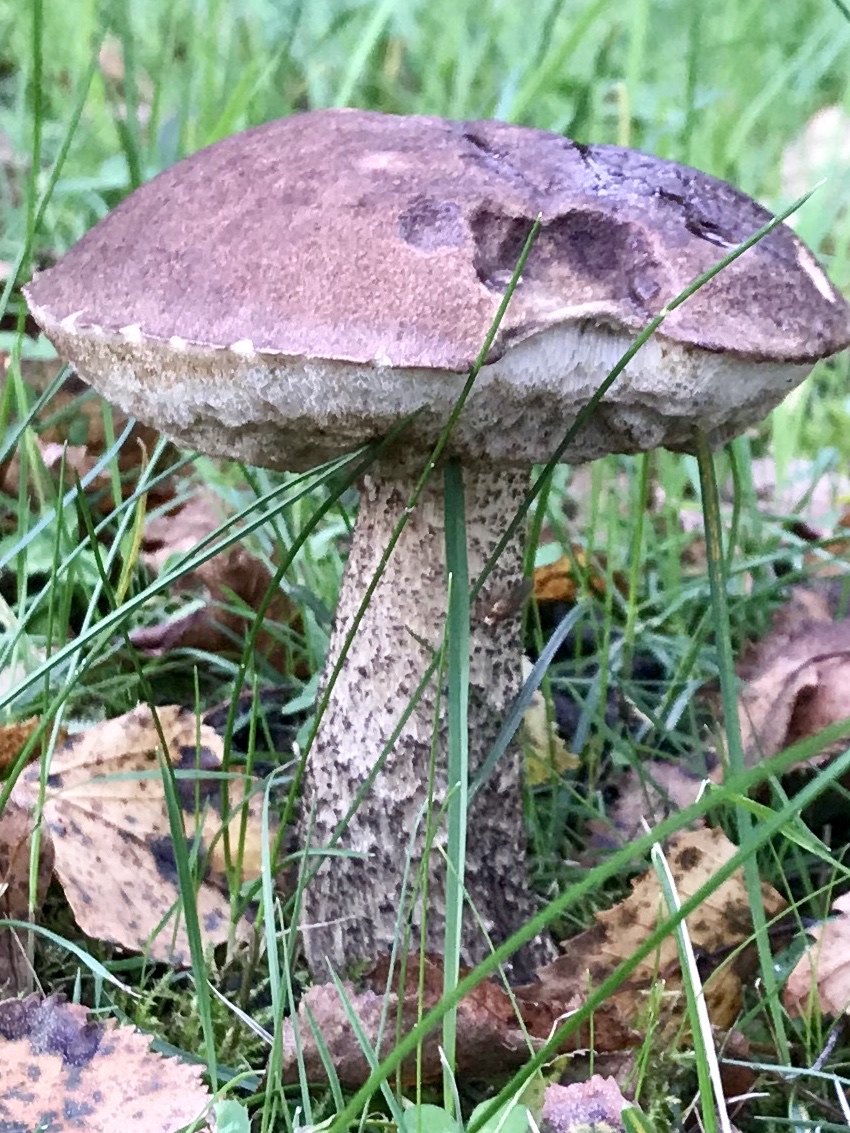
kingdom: Fungi
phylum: Basidiomycota
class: Agaricomycetes
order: Boletales
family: Boletaceae
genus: Leccinum
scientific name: Leccinum scabrum
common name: brun skælrørhat
